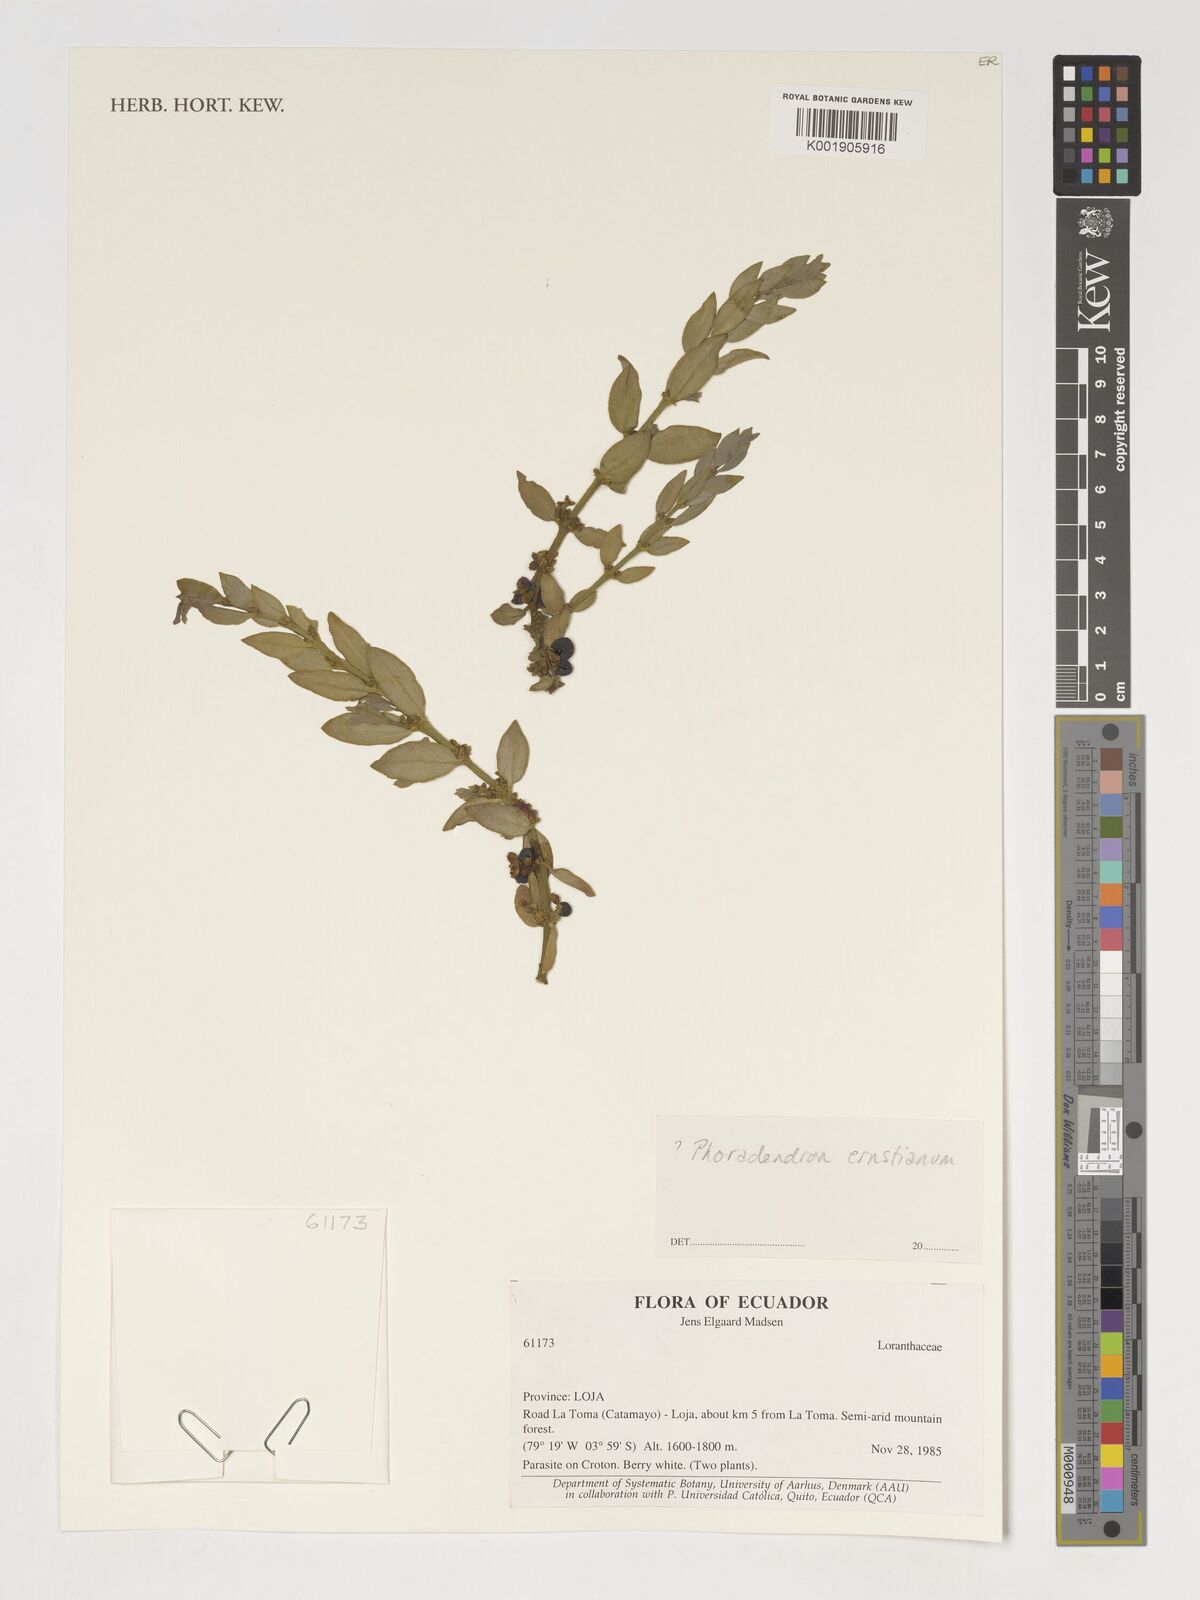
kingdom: Plantae
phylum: Tracheophyta
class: Magnoliopsida
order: Santalales
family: Viscaceae
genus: Phoradendron
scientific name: Phoradendron ernstianum
